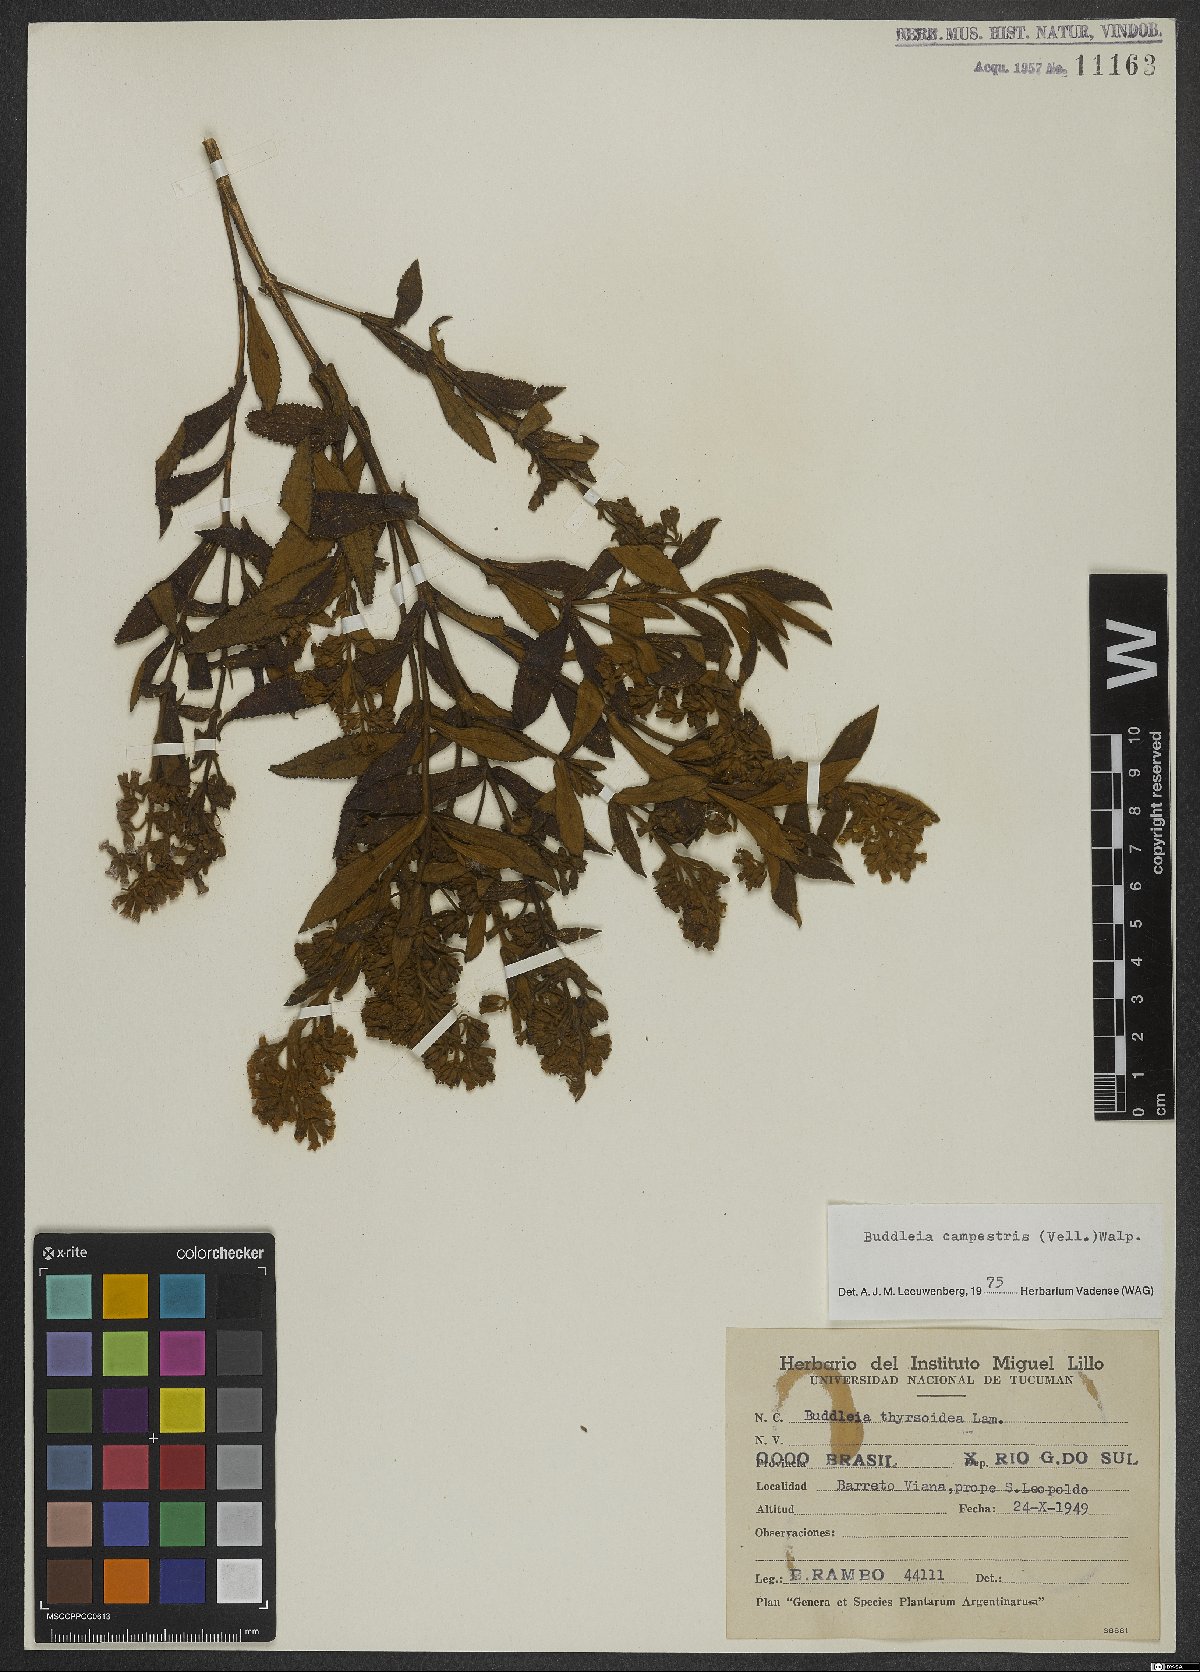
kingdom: Plantae
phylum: Tracheophyta
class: Magnoliopsida
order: Lamiales
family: Scrophulariaceae
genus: Buddleja
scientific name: Buddleja elegans
